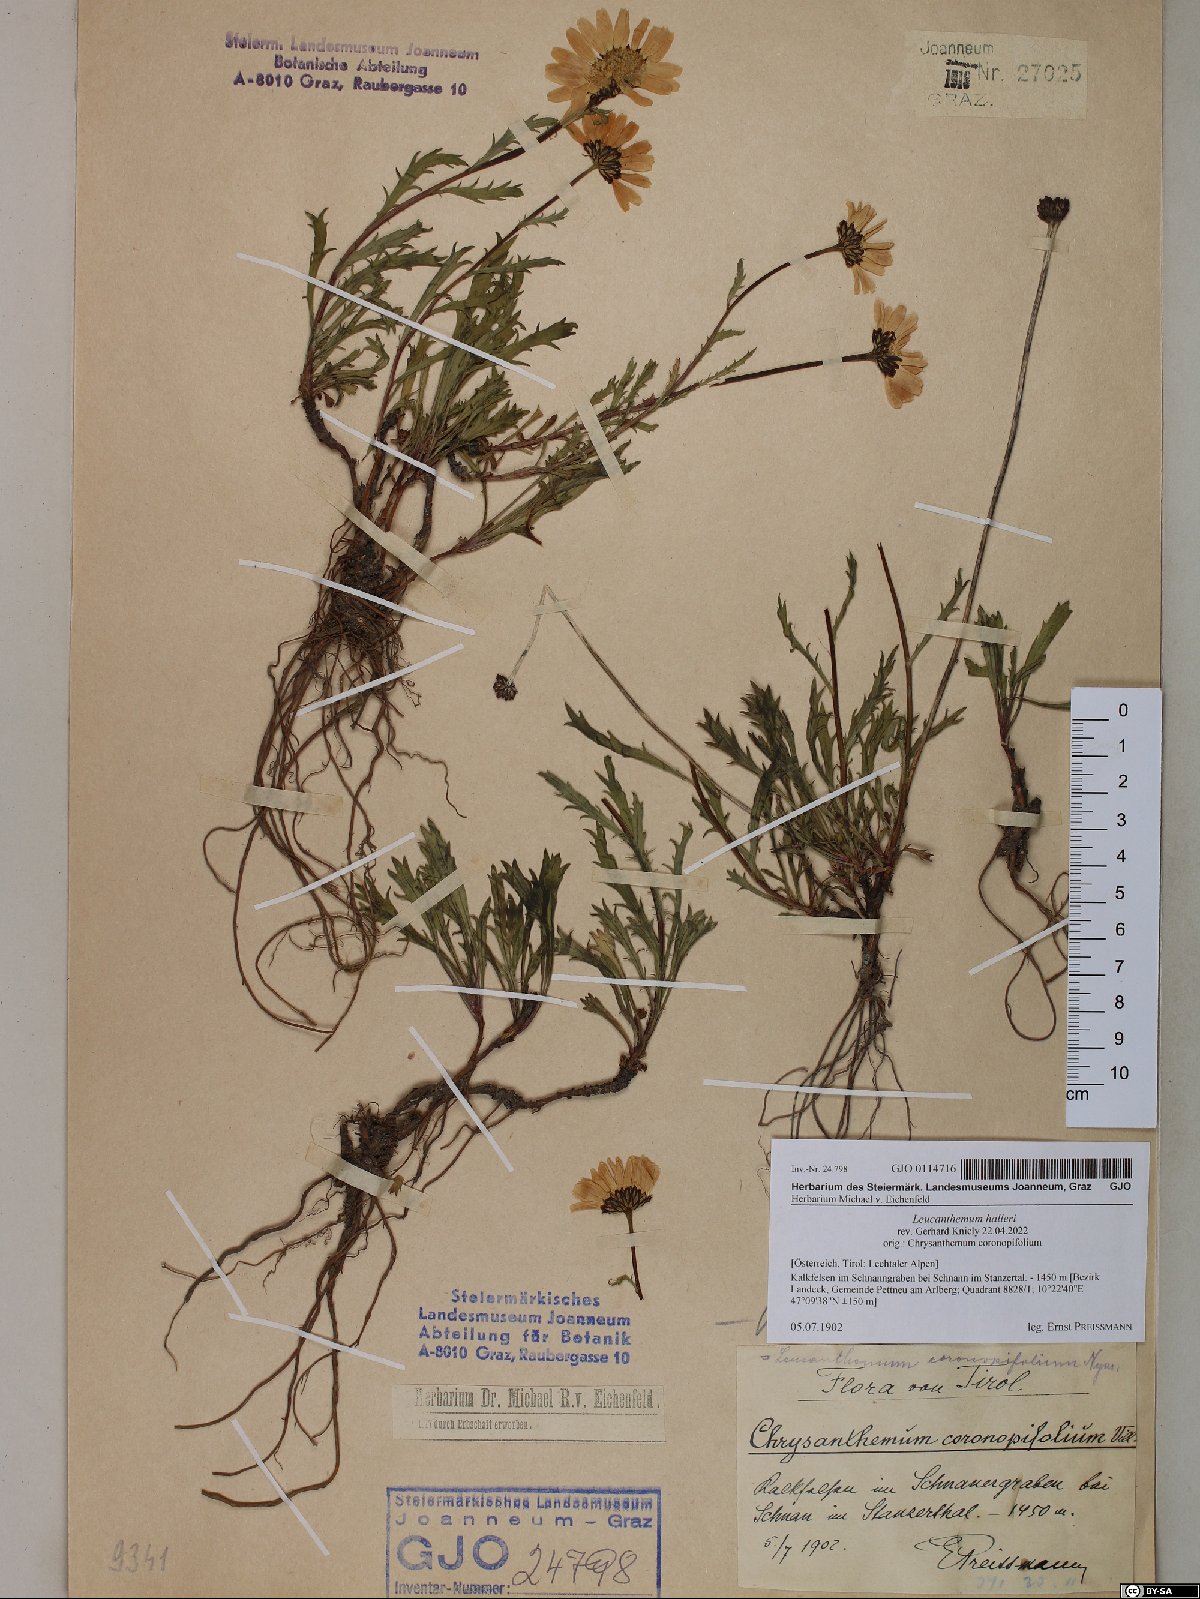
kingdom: Plantae
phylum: Tracheophyta
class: Magnoliopsida
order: Asterales
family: Asteraceae
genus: Leucanthemum
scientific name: Leucanthemum halleri
